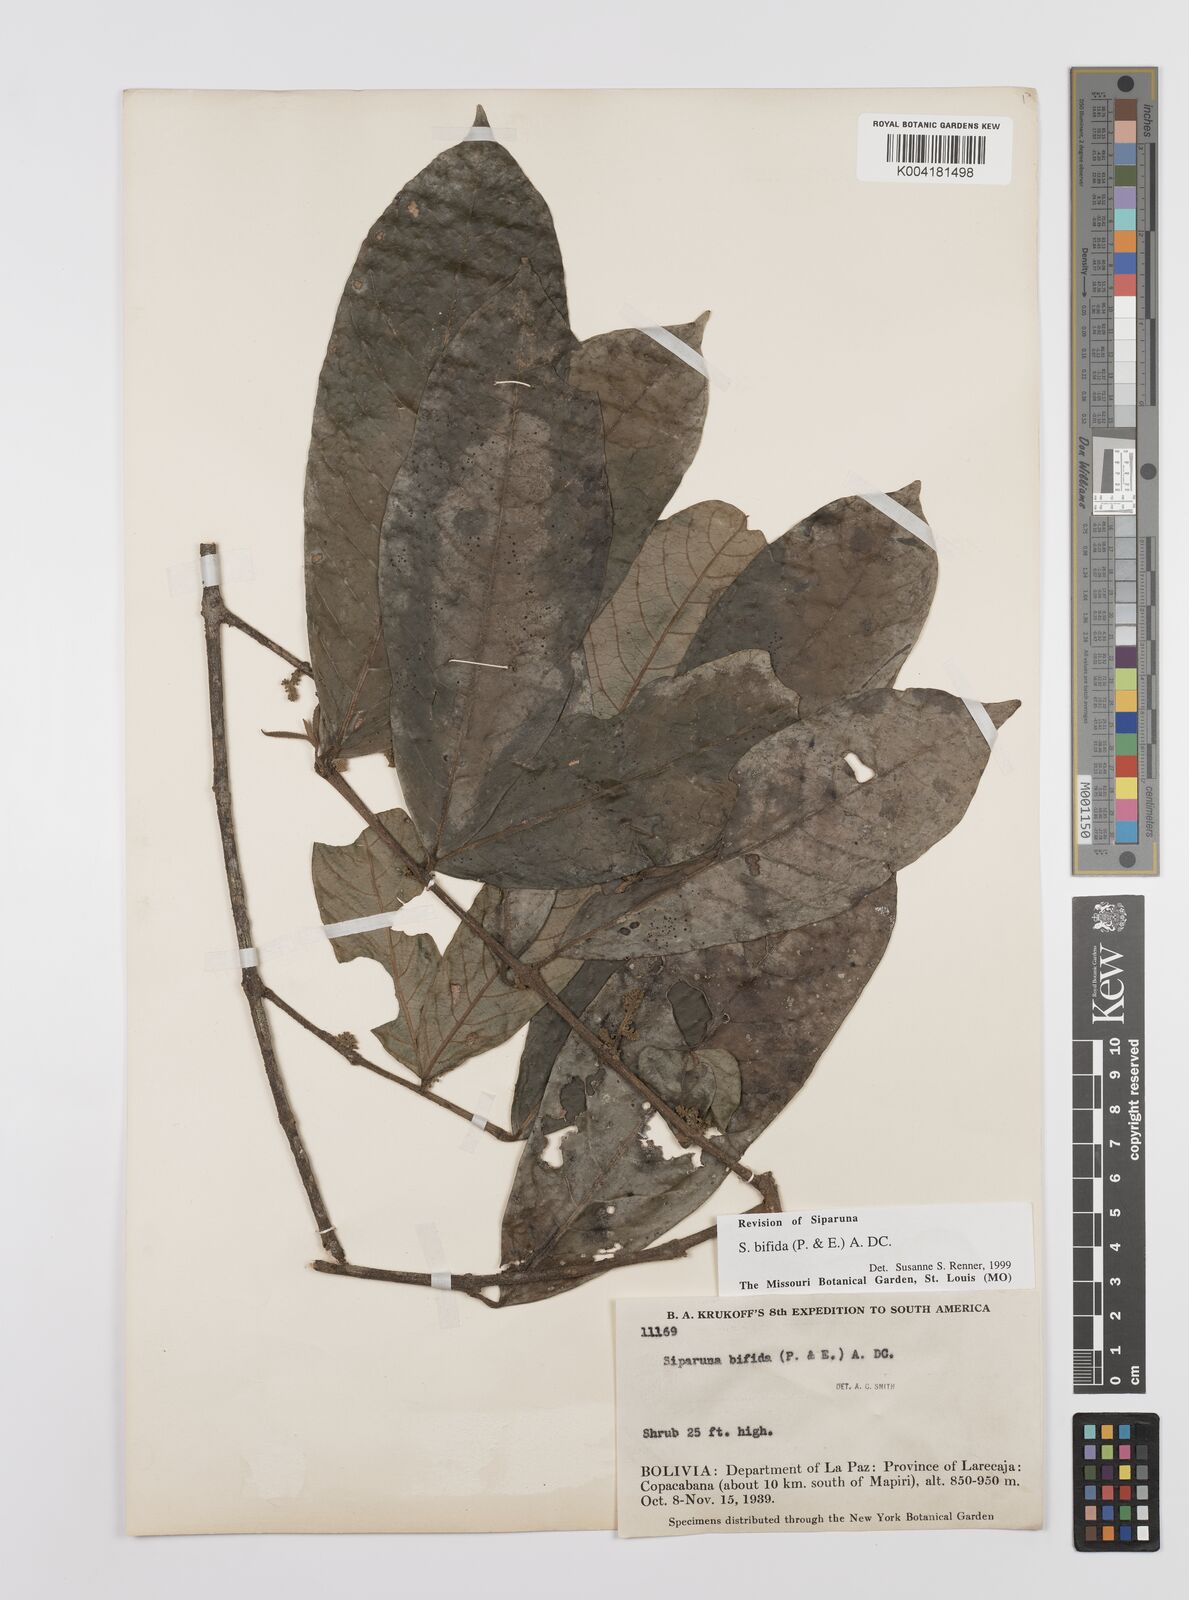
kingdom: Plantae
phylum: Tracheophyta
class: Magnoliopsida
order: Laurales
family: Siparunaceae
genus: Siparuna
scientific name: Siparuna bifida
